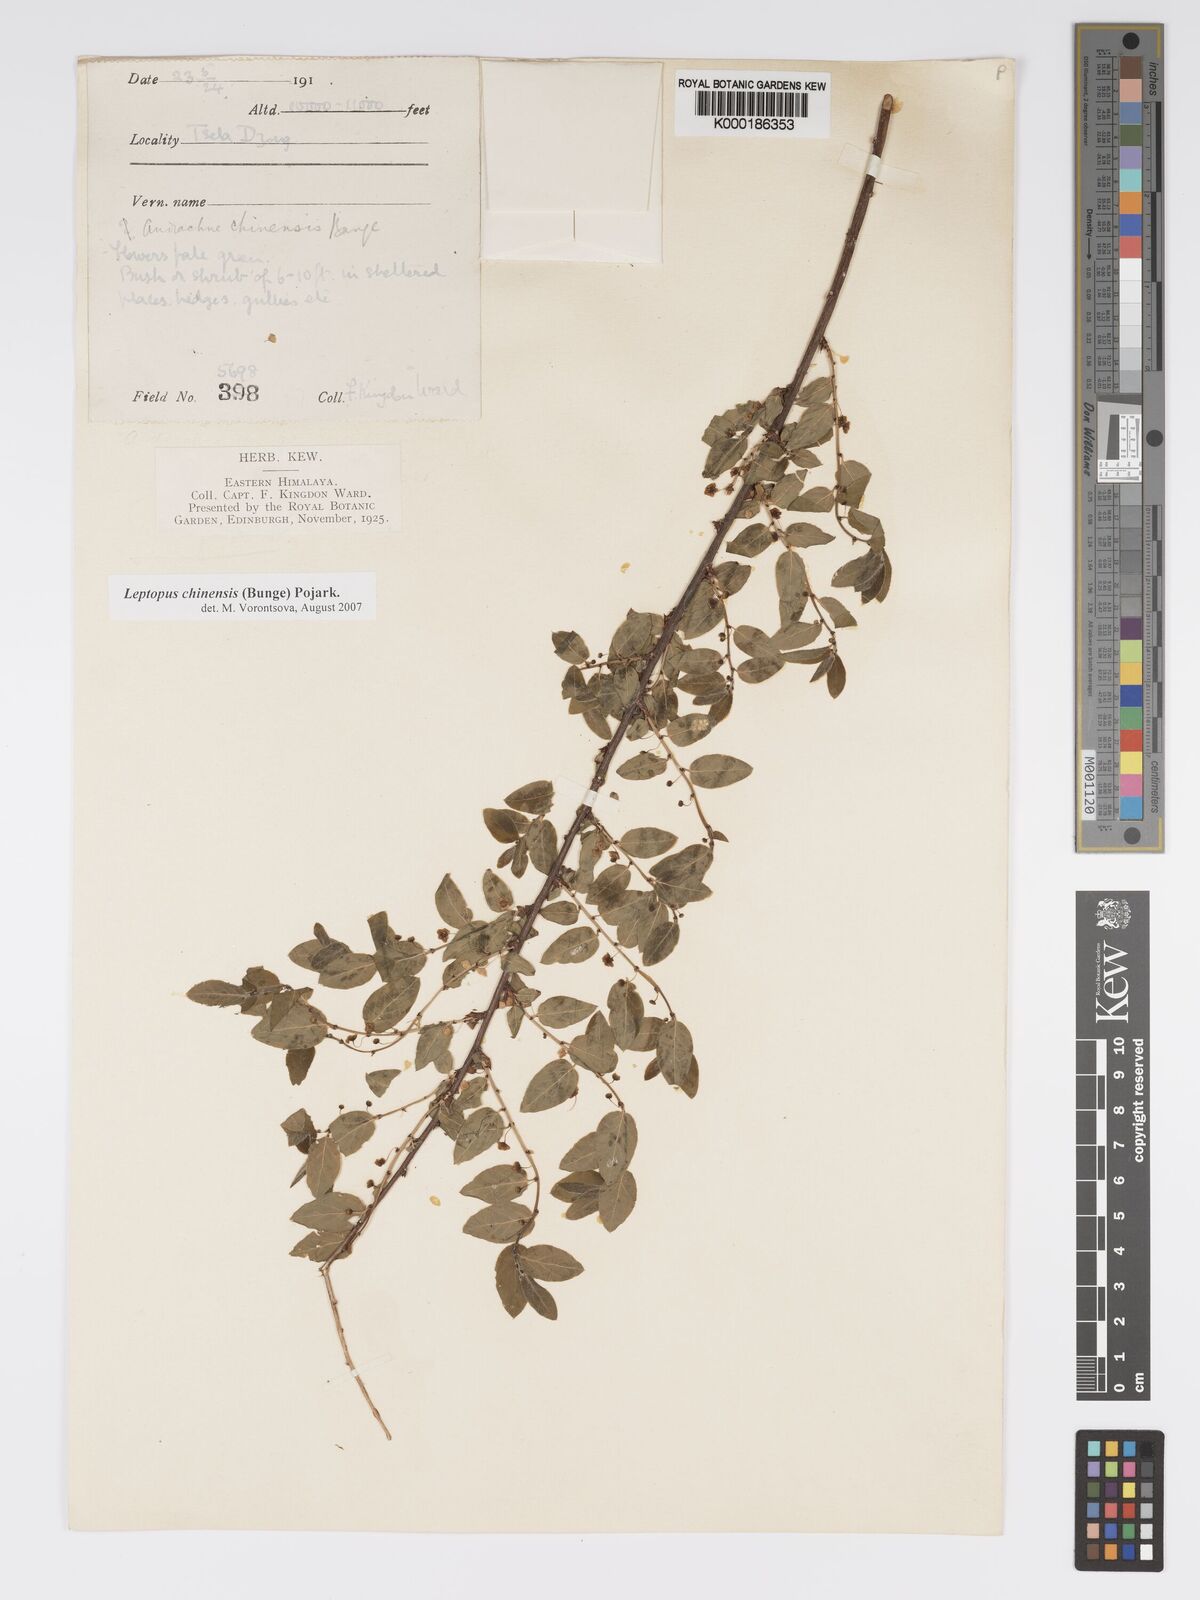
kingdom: Plantae
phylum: Tracheophyta
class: Magnoliopsida
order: Malpighiales
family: Phyllanthaceae
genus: Leptopus
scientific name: Leptopus chinensis
